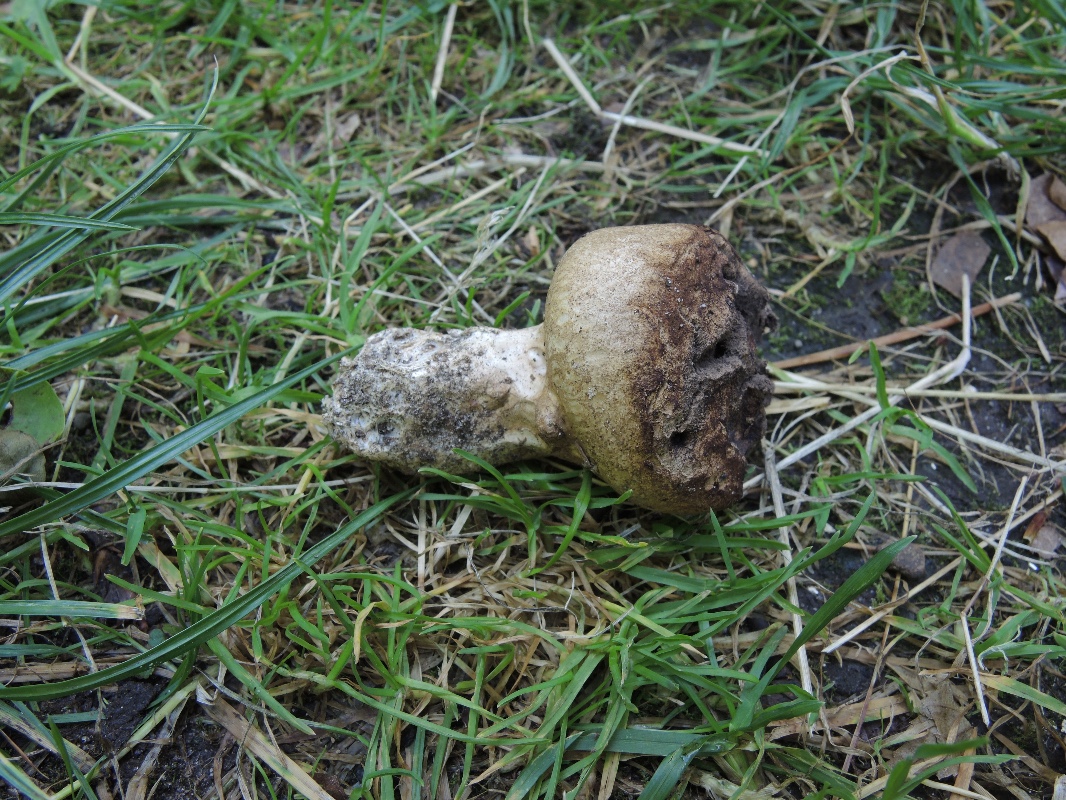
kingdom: Fungi
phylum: Basidiomycota
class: Agaricomycetes
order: Boletales
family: Sclerodermataceae
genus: Scleroderma
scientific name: Scleroderma verrucosum
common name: stilket bruskbold
